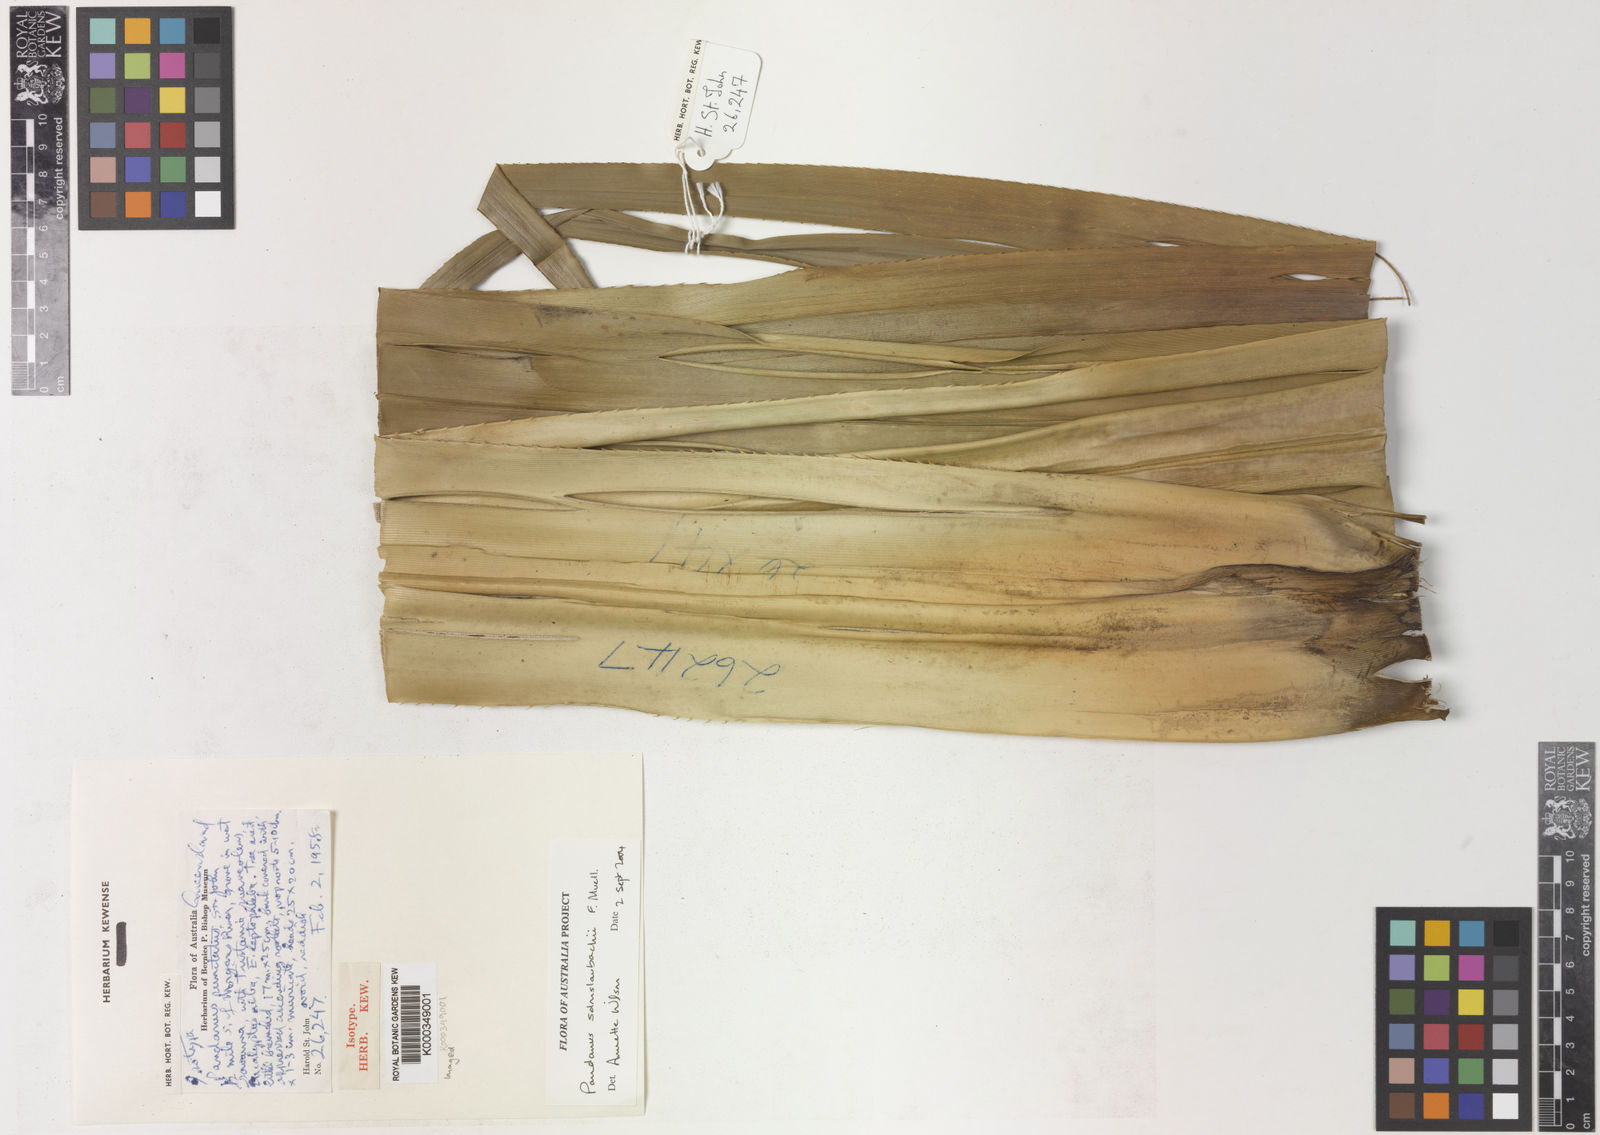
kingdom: Plantae
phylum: Tracheophyta
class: Liliopsida
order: Pandanales
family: Pandanaceae
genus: Pandanus
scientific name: Pandanus solms-laubachii
